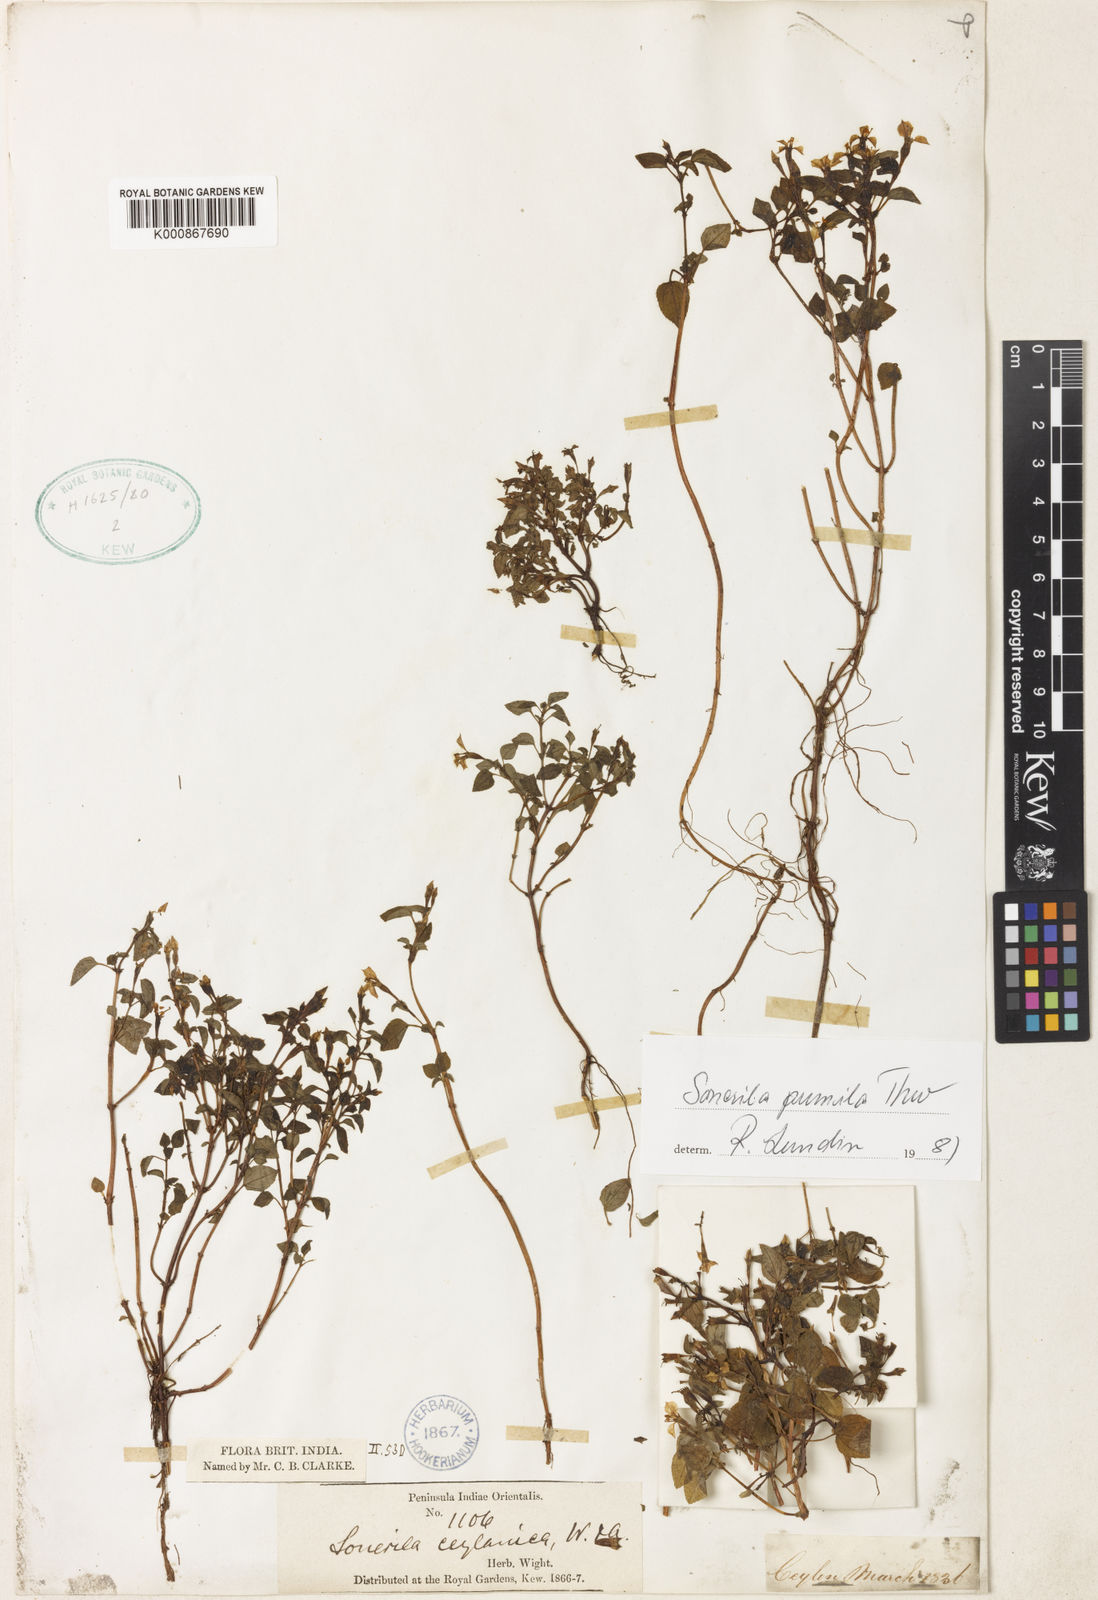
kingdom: Plantae
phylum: Tracheophyta
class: Magnoliopsida
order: Myrtales
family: Melastomataceae
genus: Sonerila
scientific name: Sonerila pumila
